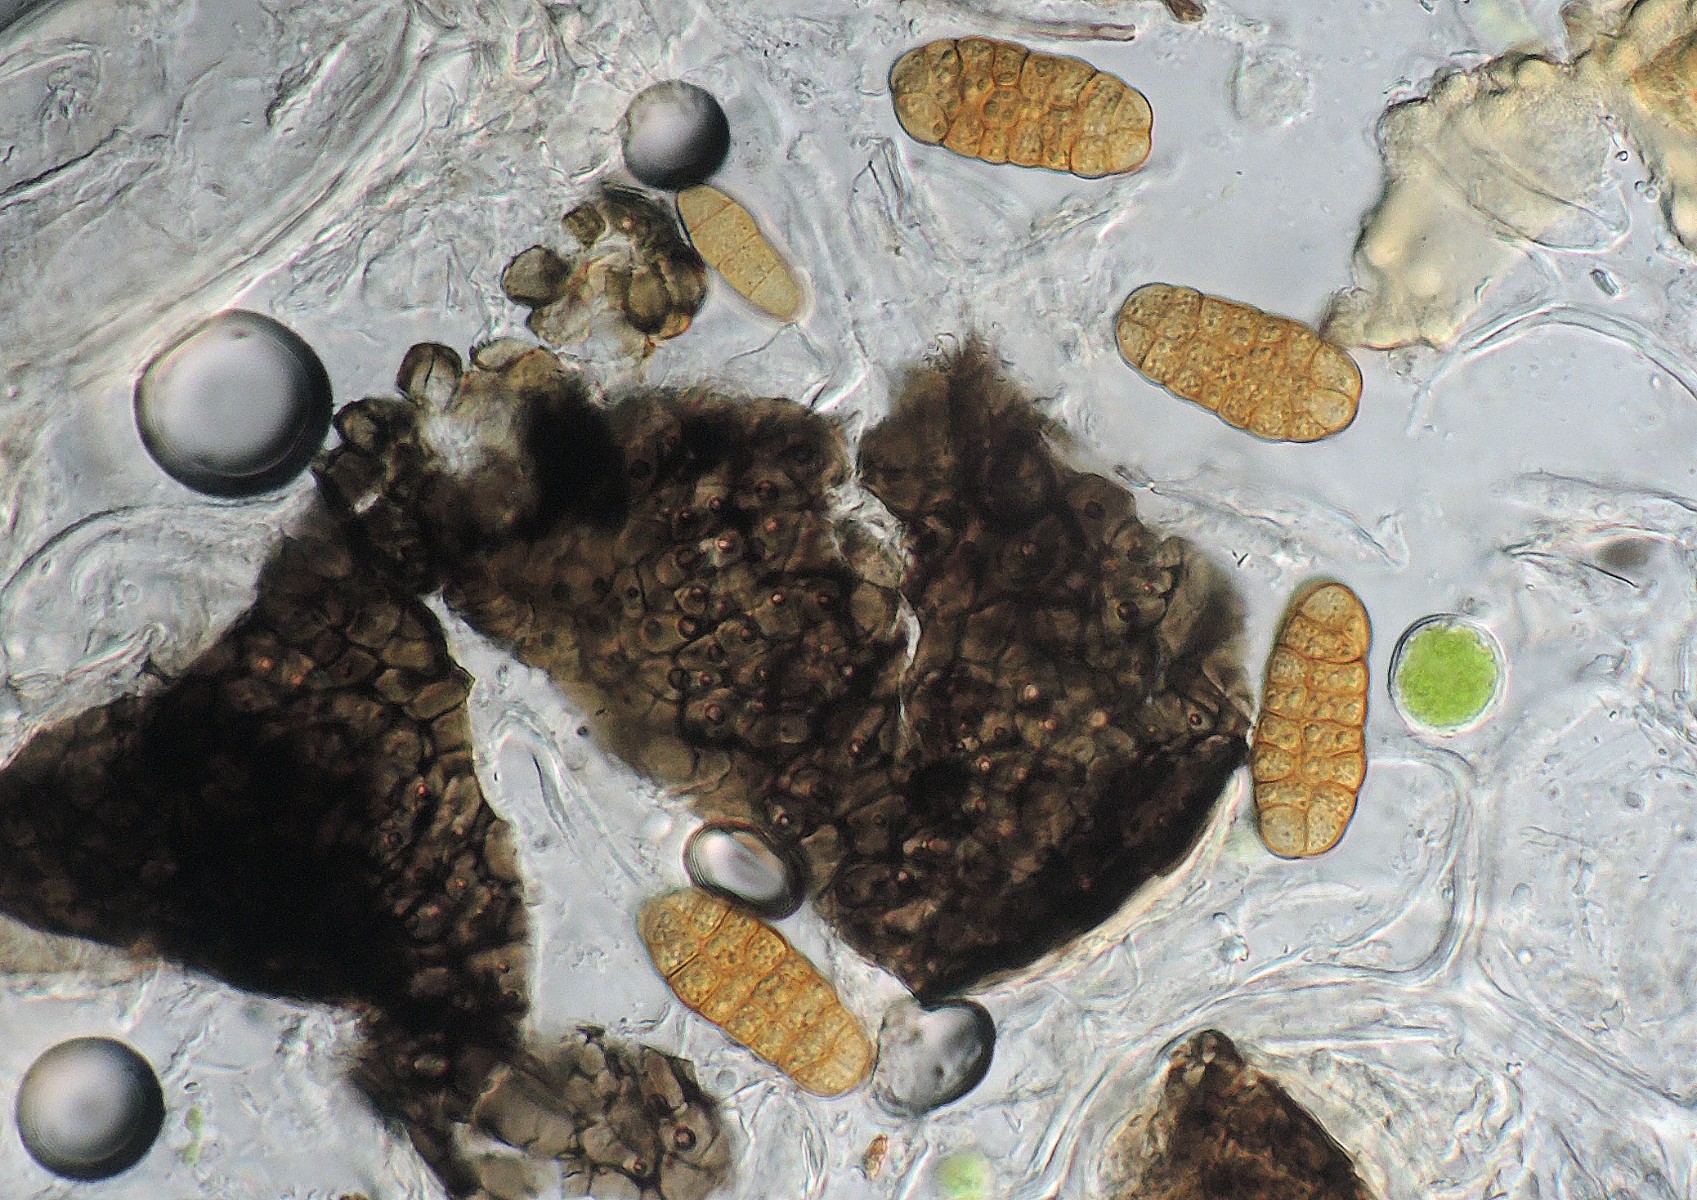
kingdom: Fungi
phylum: Ascomycota
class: Dothideomycetes
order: Pleosporales
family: Pleosporaceae
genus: Stemphylium
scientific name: Stemphylium vesicarium
